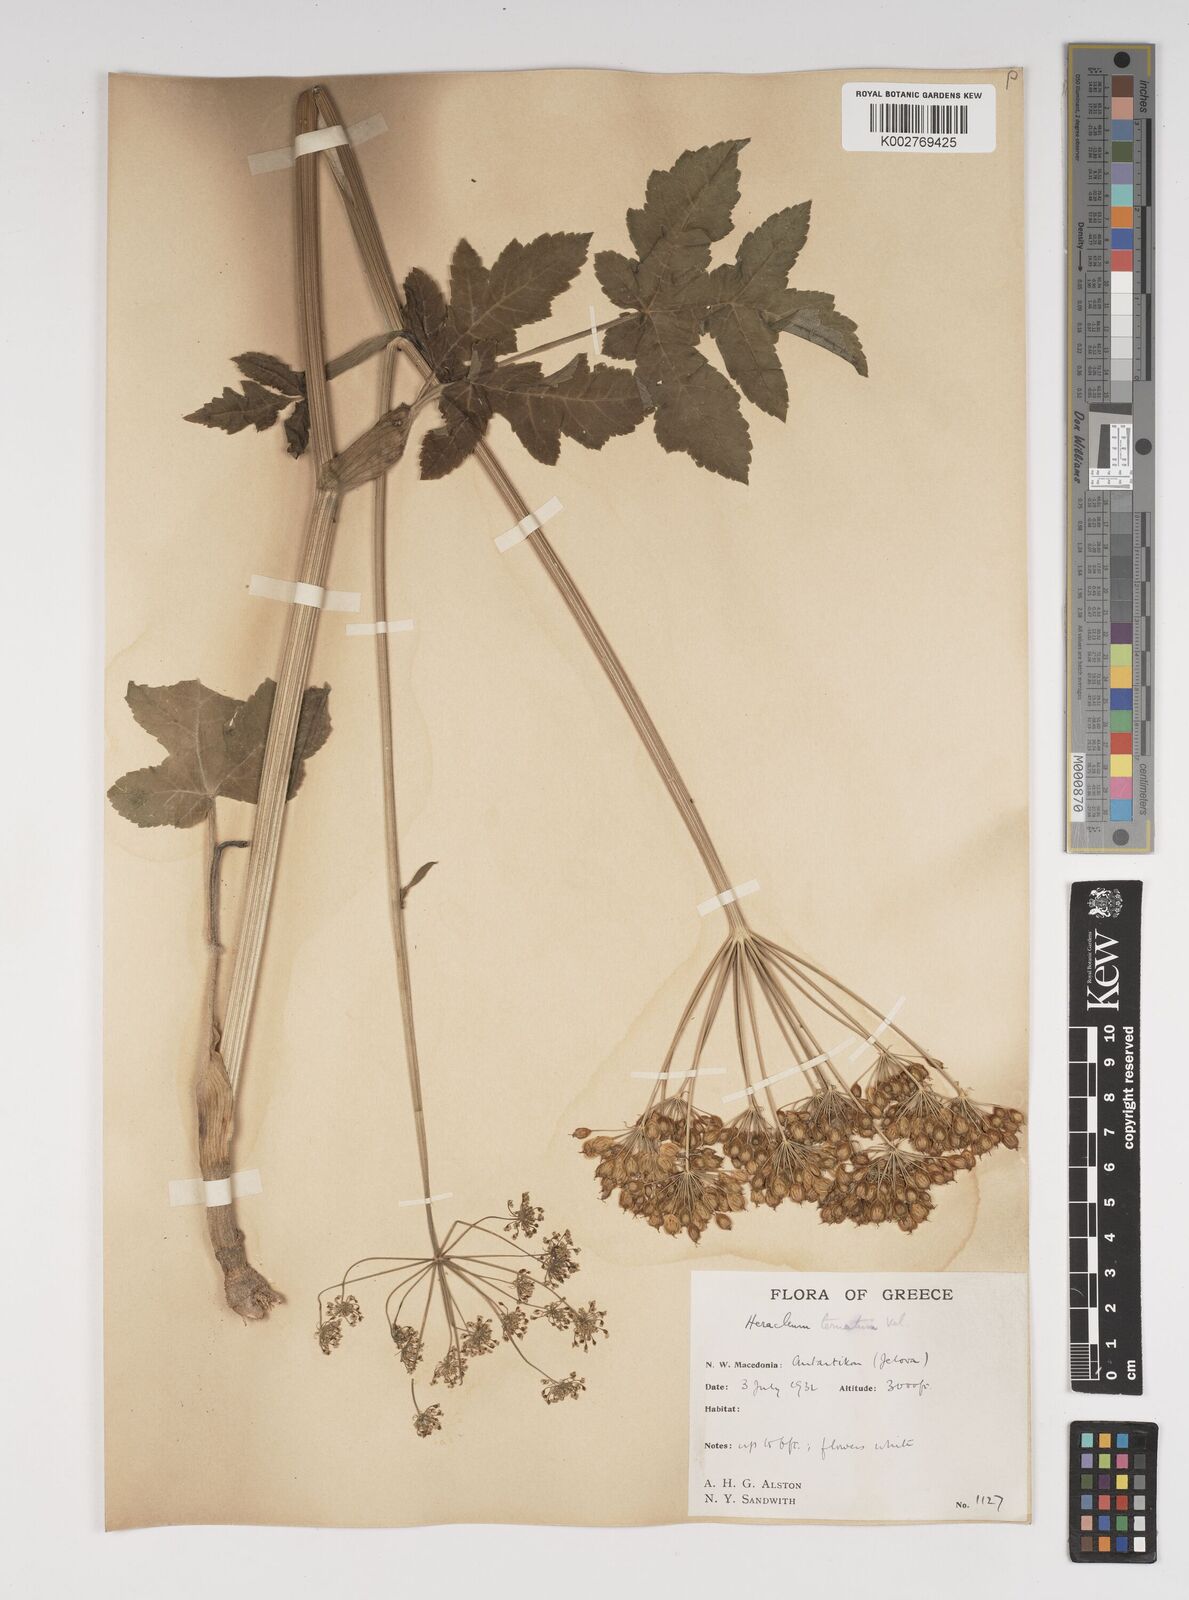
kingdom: Plantae
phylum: Tracheophyta
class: Magnoliopsida
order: Apiales
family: Apiaceae
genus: Heracleum
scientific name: Heracleum sphondylium
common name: Hogweed
